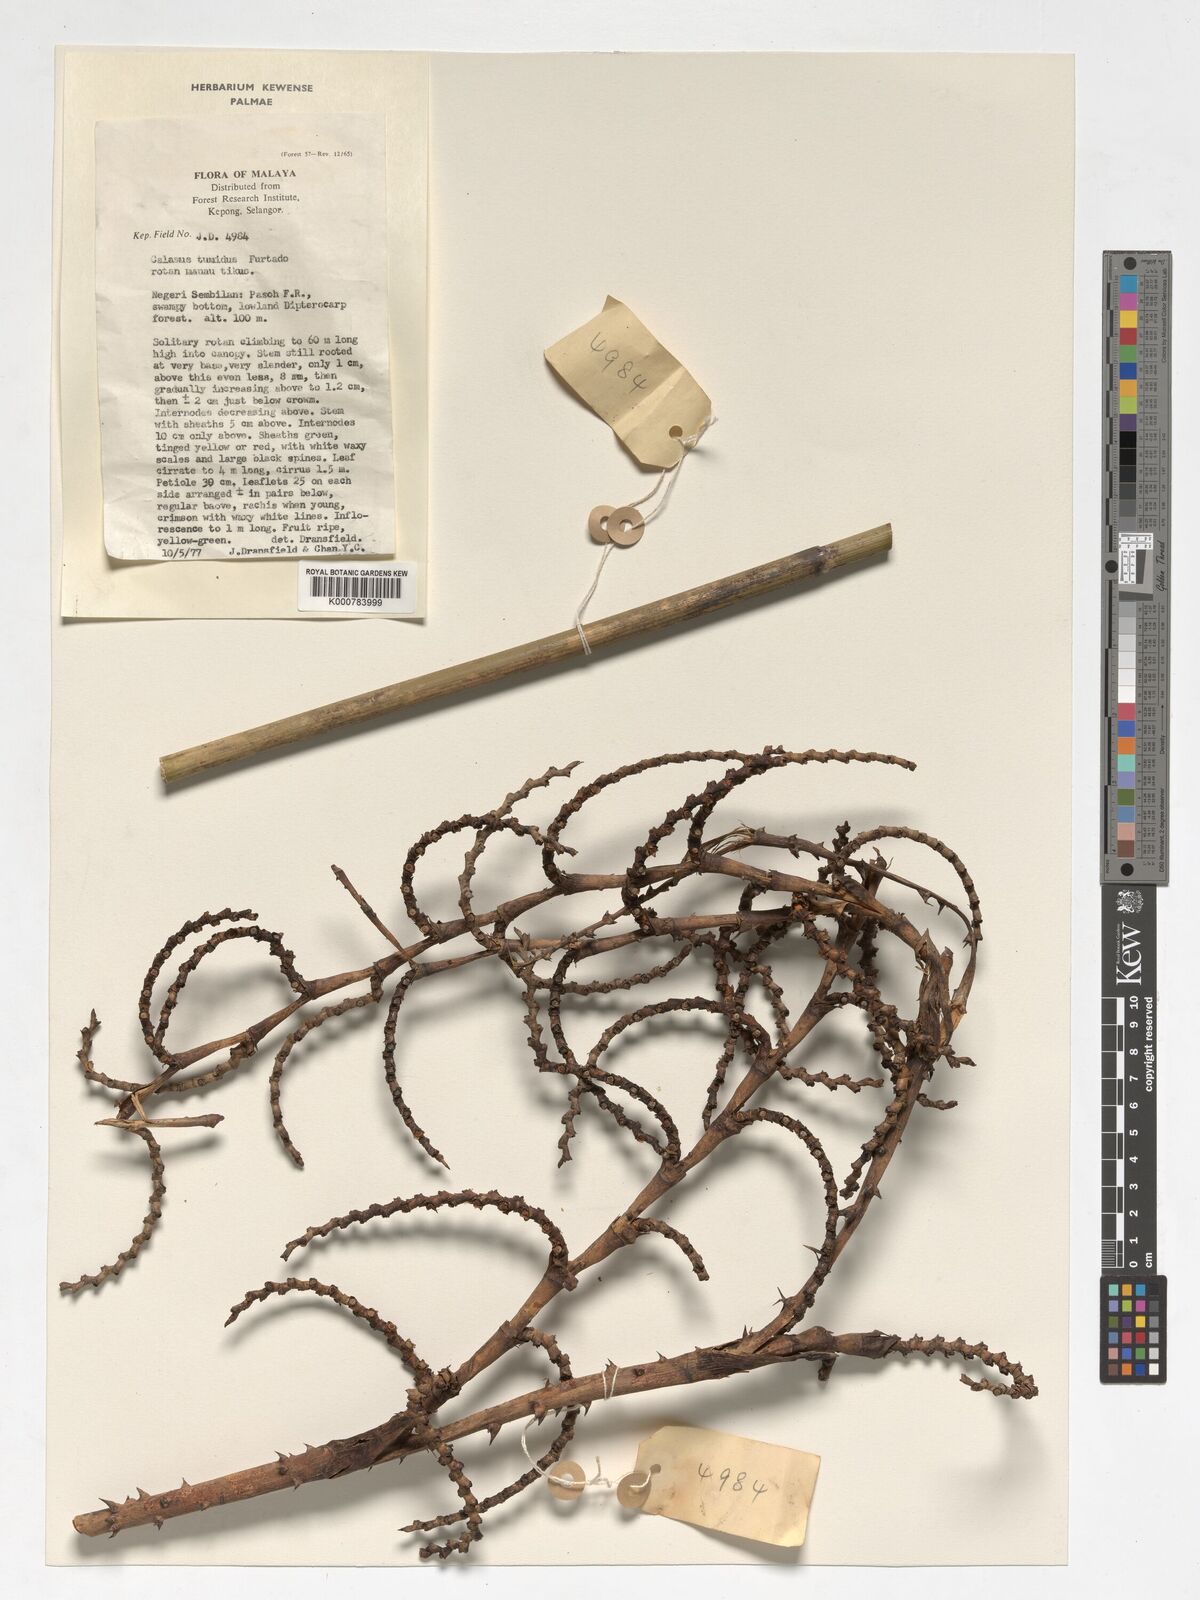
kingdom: Plantae
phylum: Tracheophyta
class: Liliopsida
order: Arecales
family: Arecaceae
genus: Calamus
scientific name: Calamus tumidus
